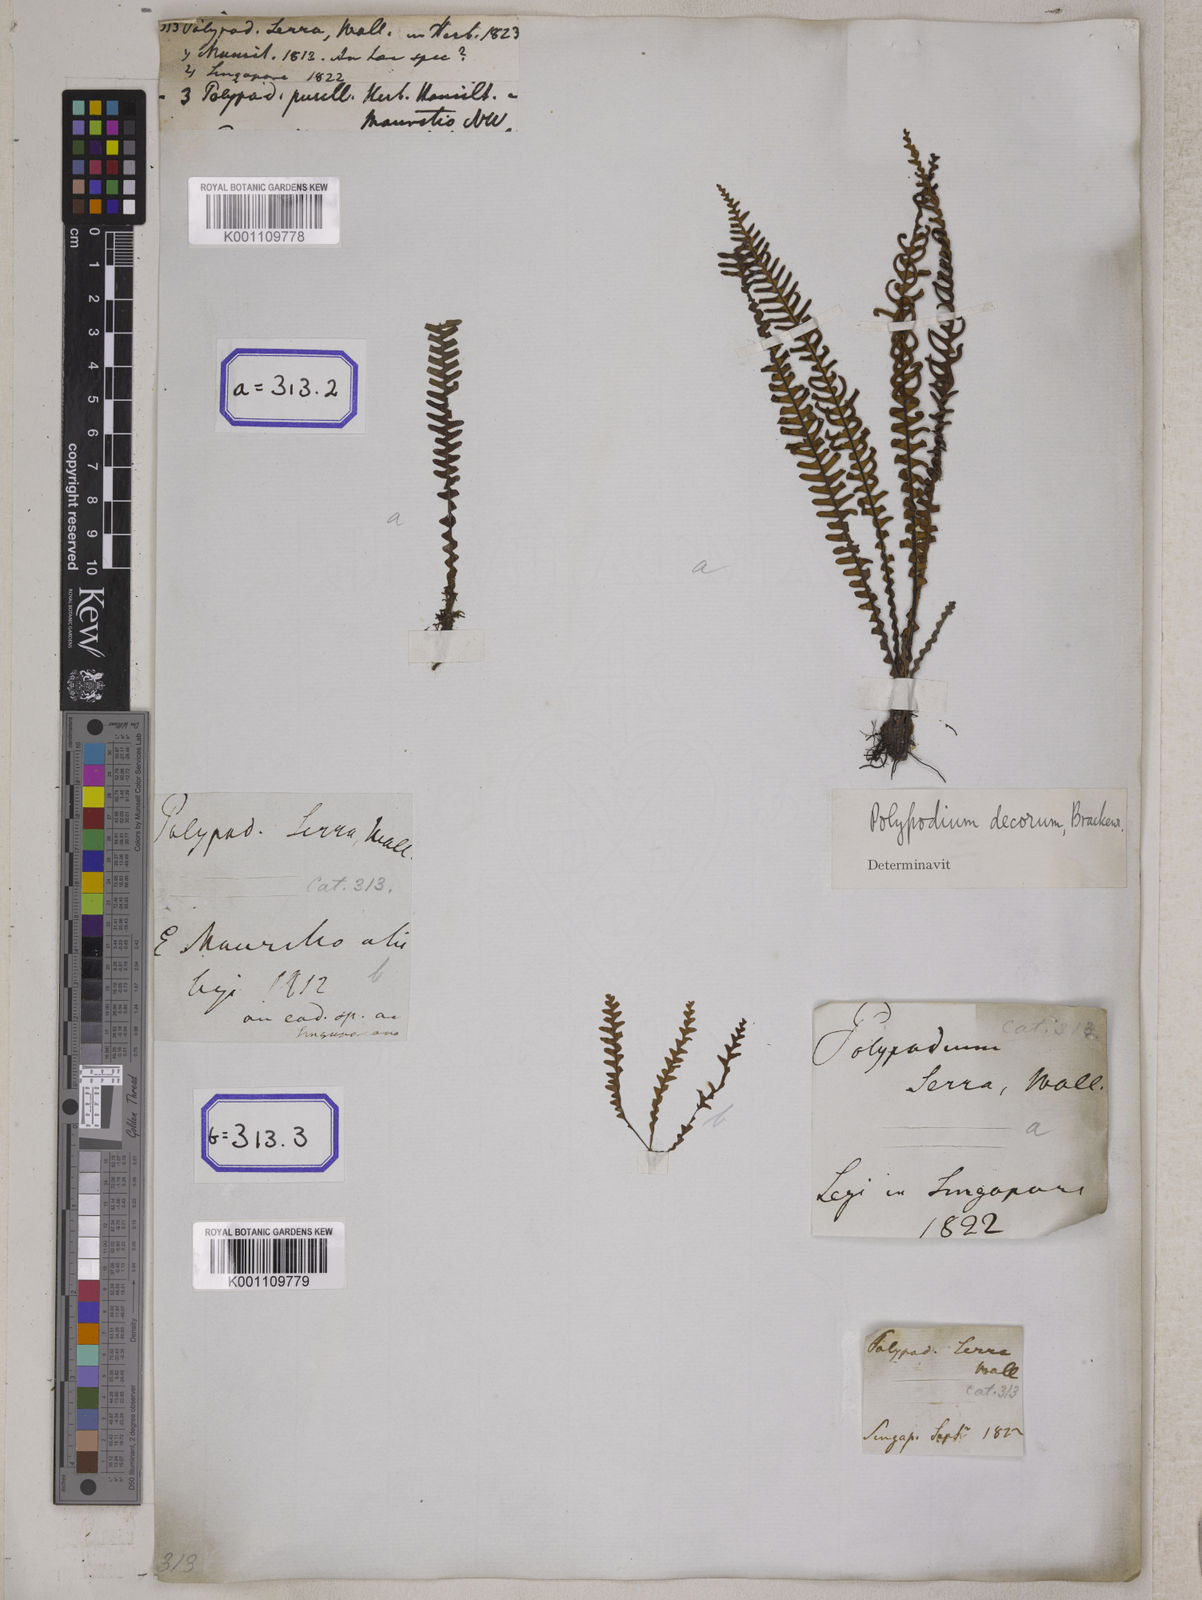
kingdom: Plantae
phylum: Tracheophyta
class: Polypodiopsida
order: Polypodiales
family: Polypodiaceae
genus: Ctenopterella
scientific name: Ctenopterella blechnoides
